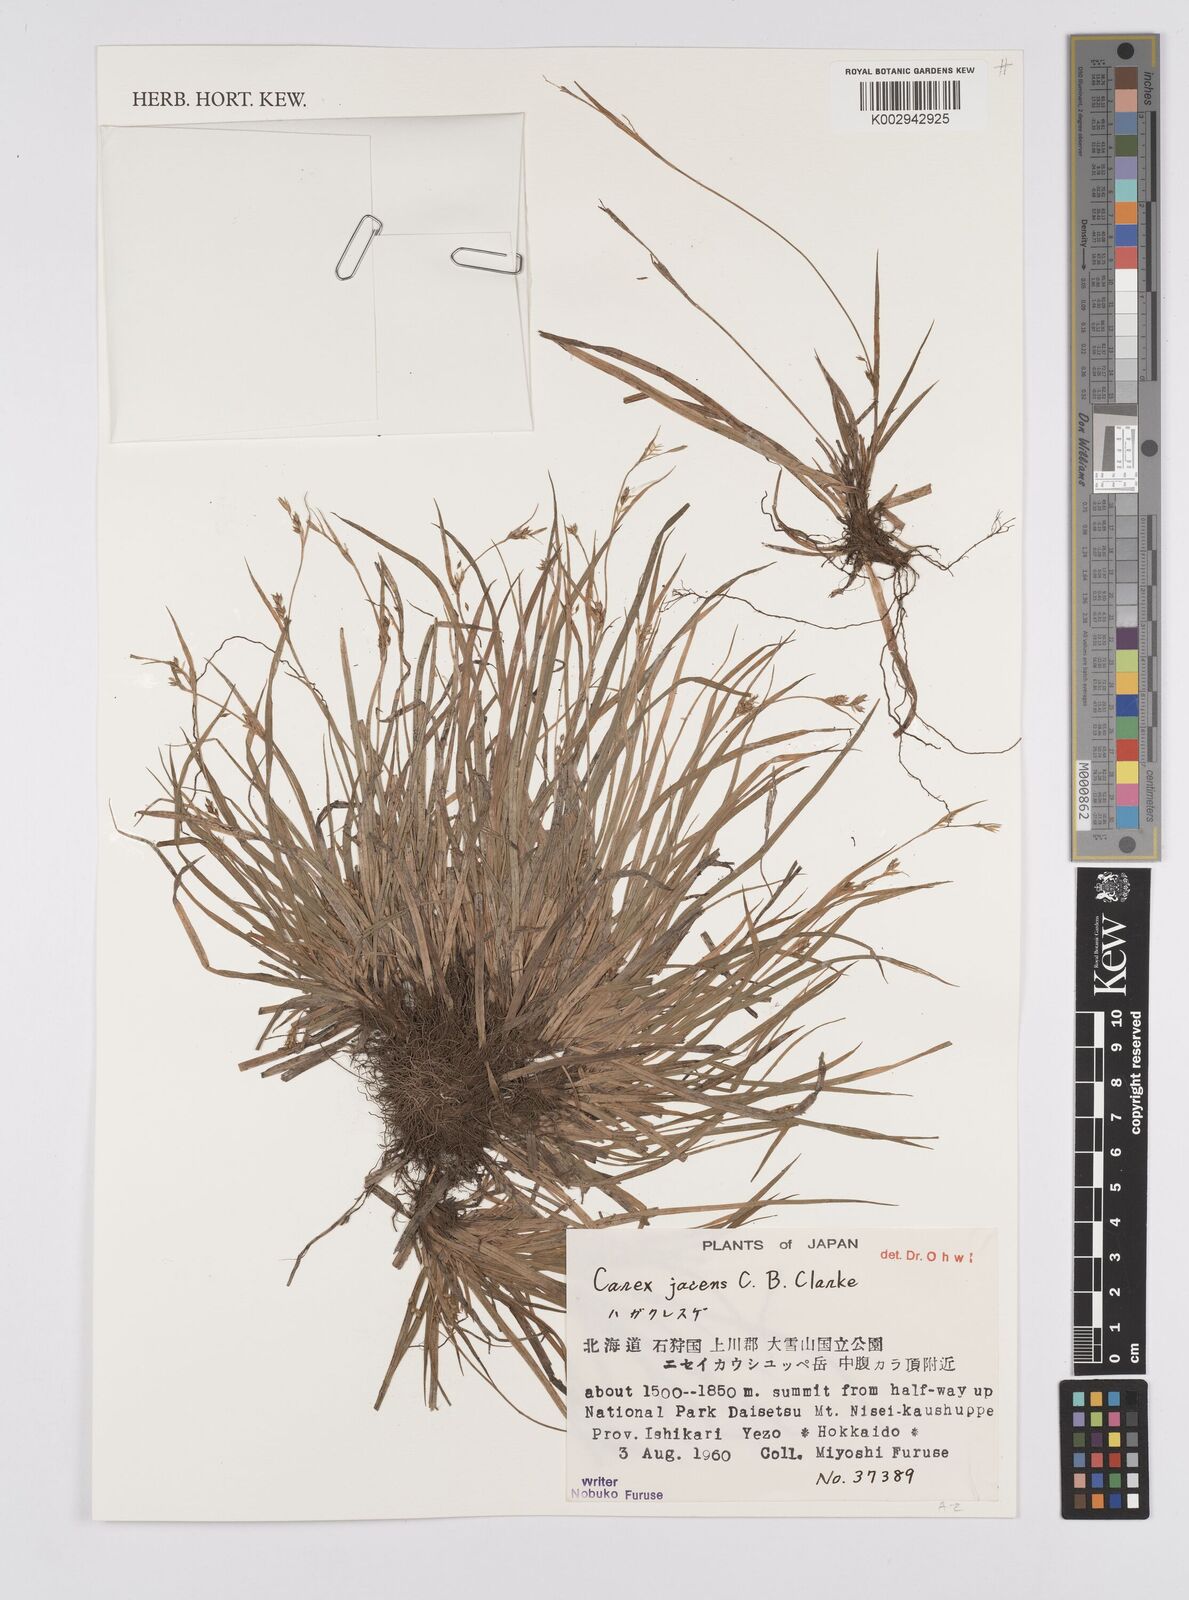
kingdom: Plantae
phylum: Tracheophyta
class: Liliopsida
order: Poales
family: Cyperaceae
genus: Carex
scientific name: Carex jacens
